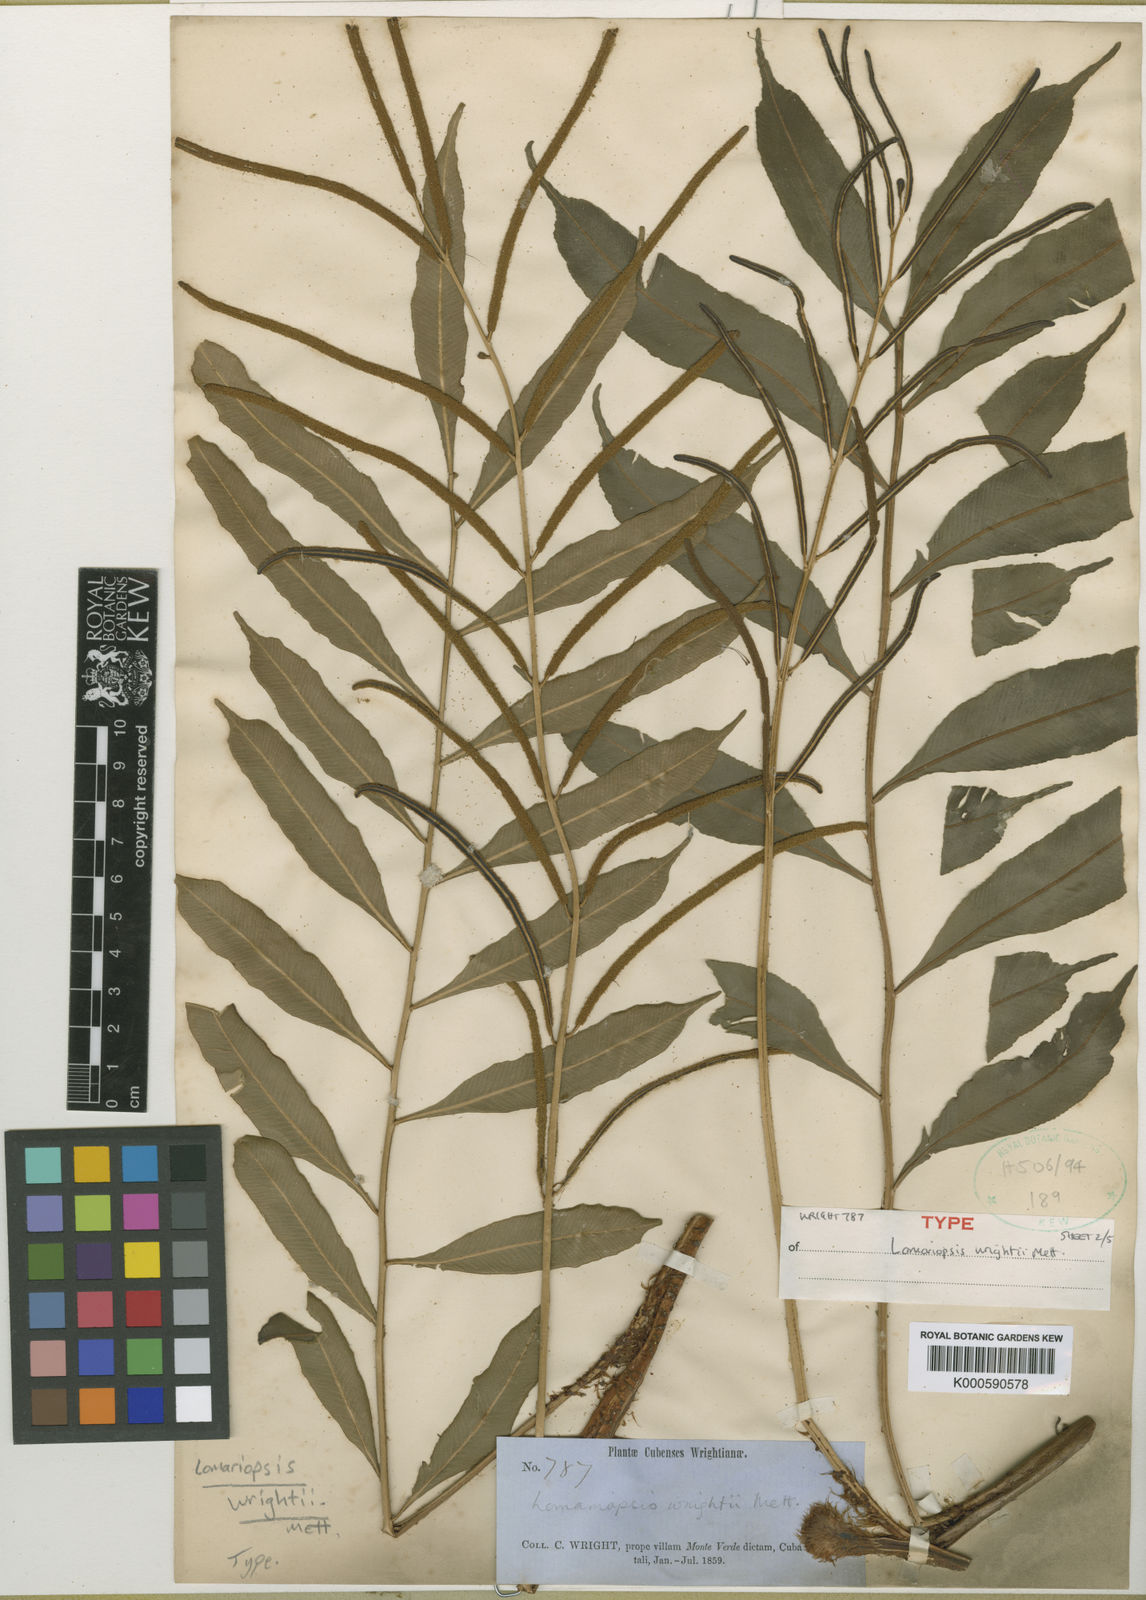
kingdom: Plantae
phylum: Tracheophyta
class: Polypodiopsida
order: Polypodiales
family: Lomariopsidaceae
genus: Lomariopsis
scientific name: Lomariopsis
